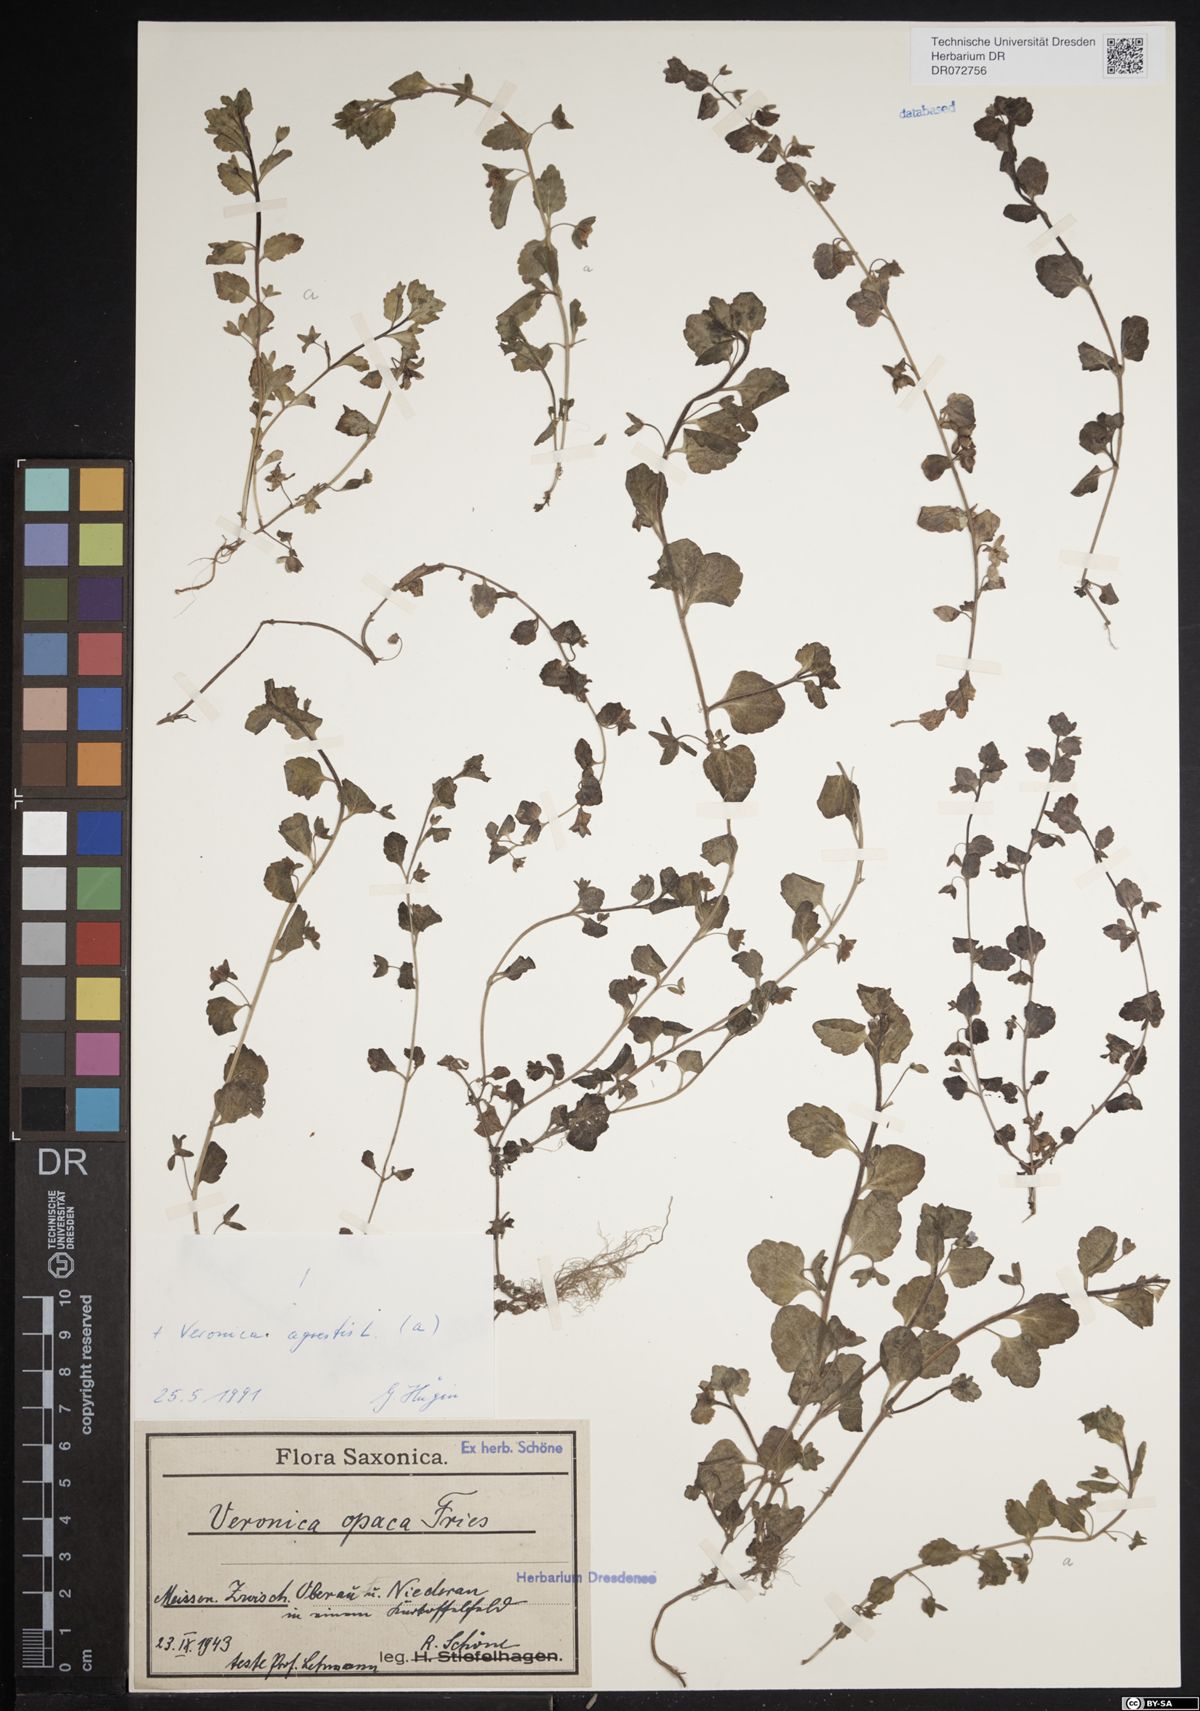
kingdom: Plantae
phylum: Tracheophyta
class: Magnoliopsida
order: Lamiales
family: Plantaginaceae
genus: Veronica
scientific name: Veronica agrestis
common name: Green field-speedwell
